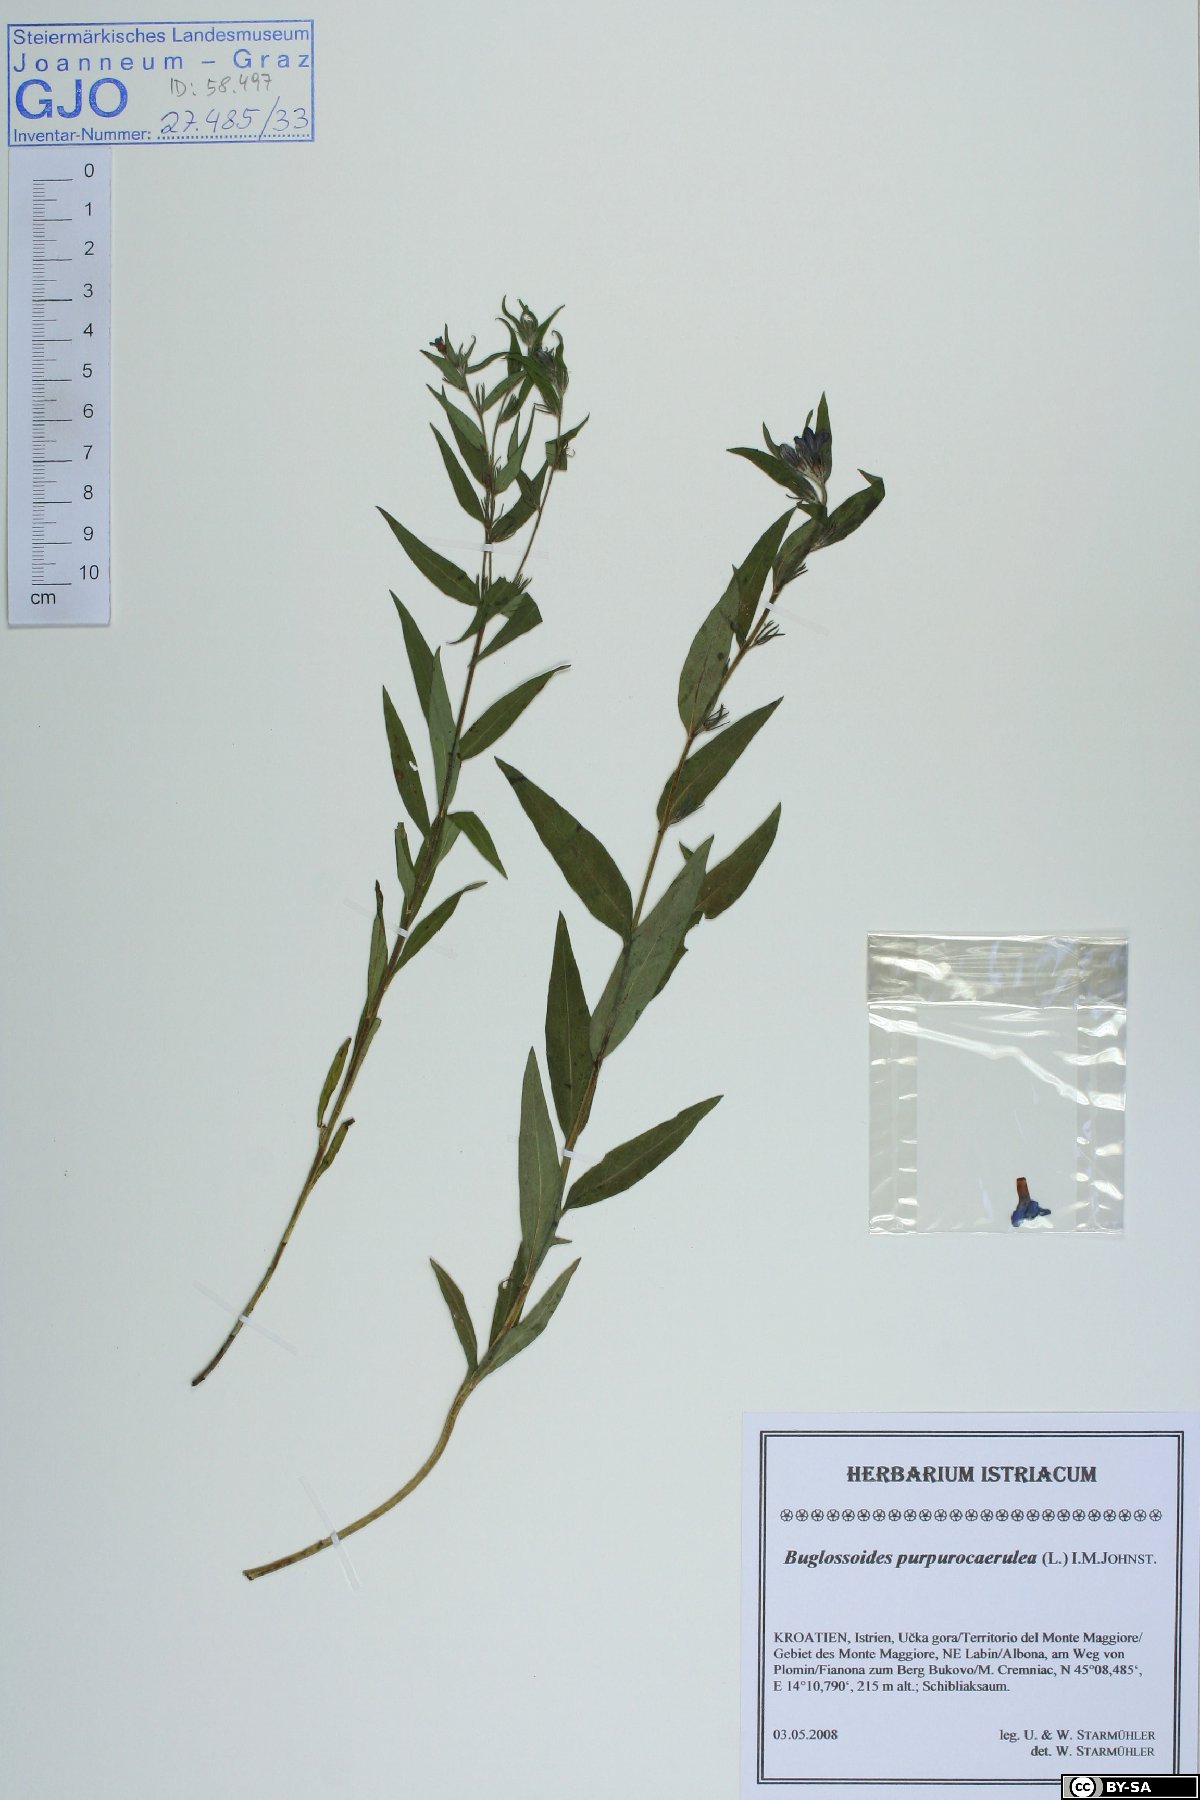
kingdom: Plantae
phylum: Tracheophyta
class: Magnoliopsida
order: Boraginales
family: Boraginaceae
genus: Aegonychon
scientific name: Aegonychon purpurocaeruleum
